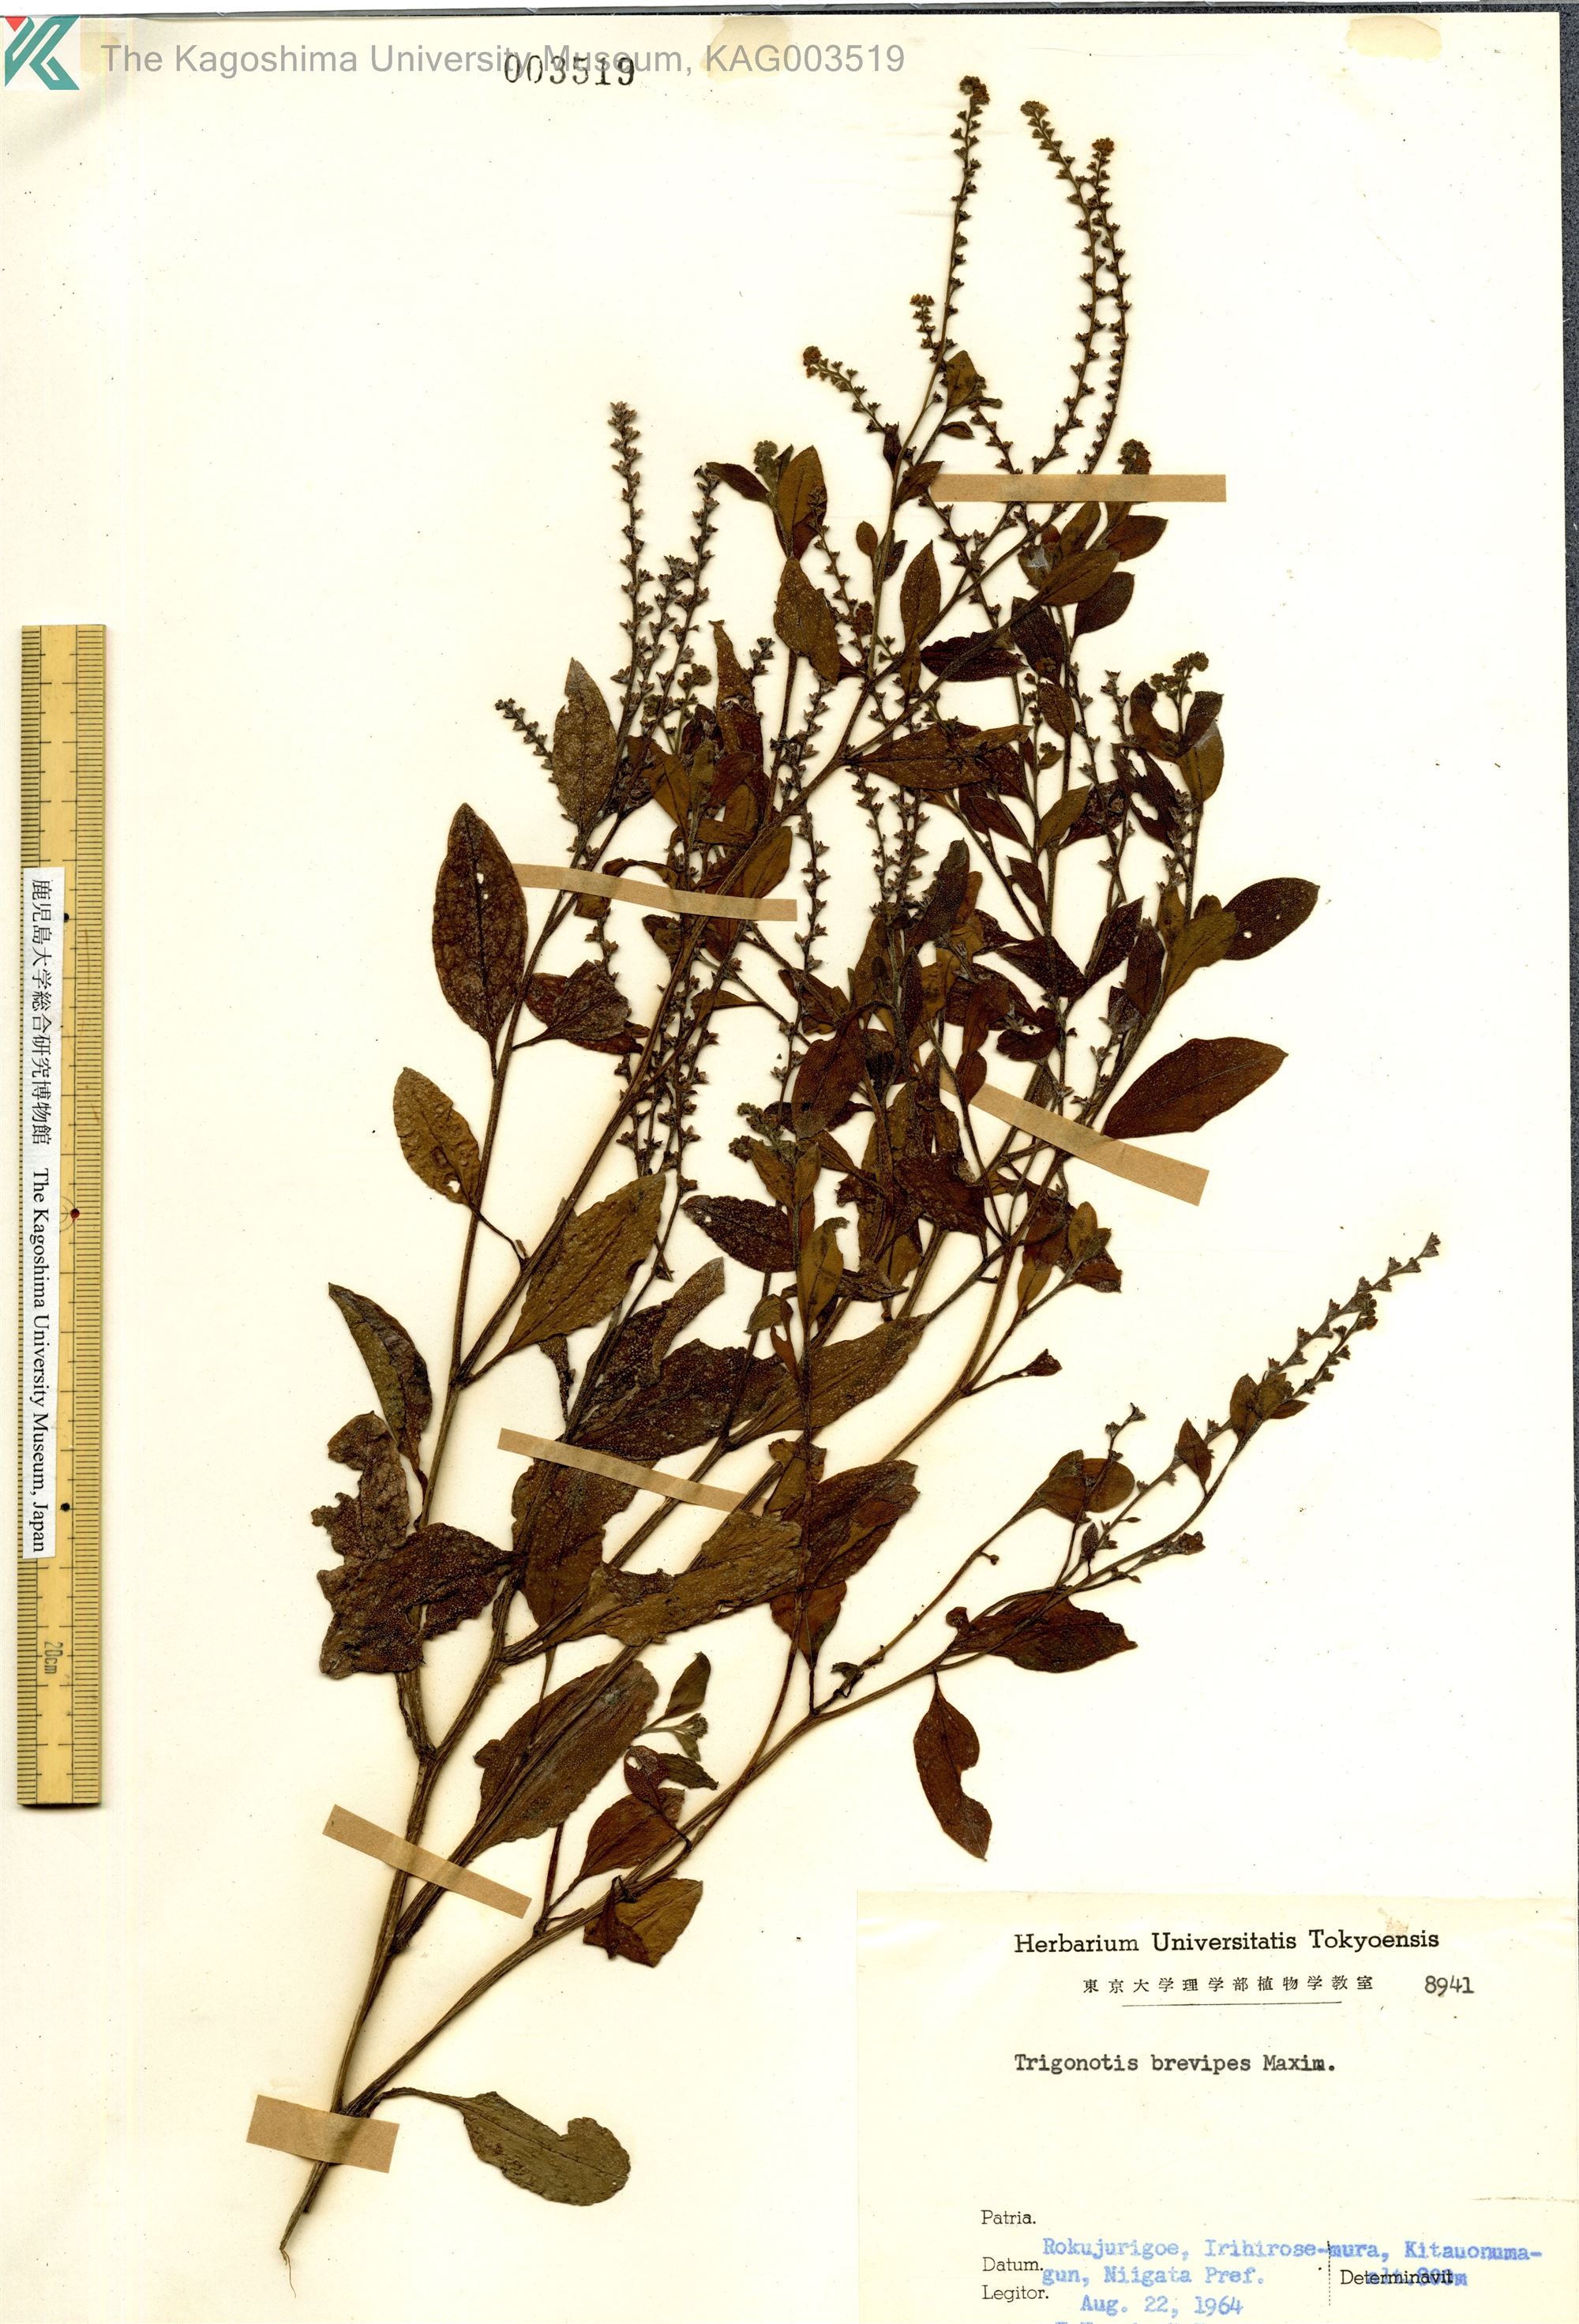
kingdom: Plantae
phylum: Tracheophyta
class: Magnoliopsida
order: Boraginales
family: Boraginaceae
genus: Trigonotis
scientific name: Trigonotis brevipes
